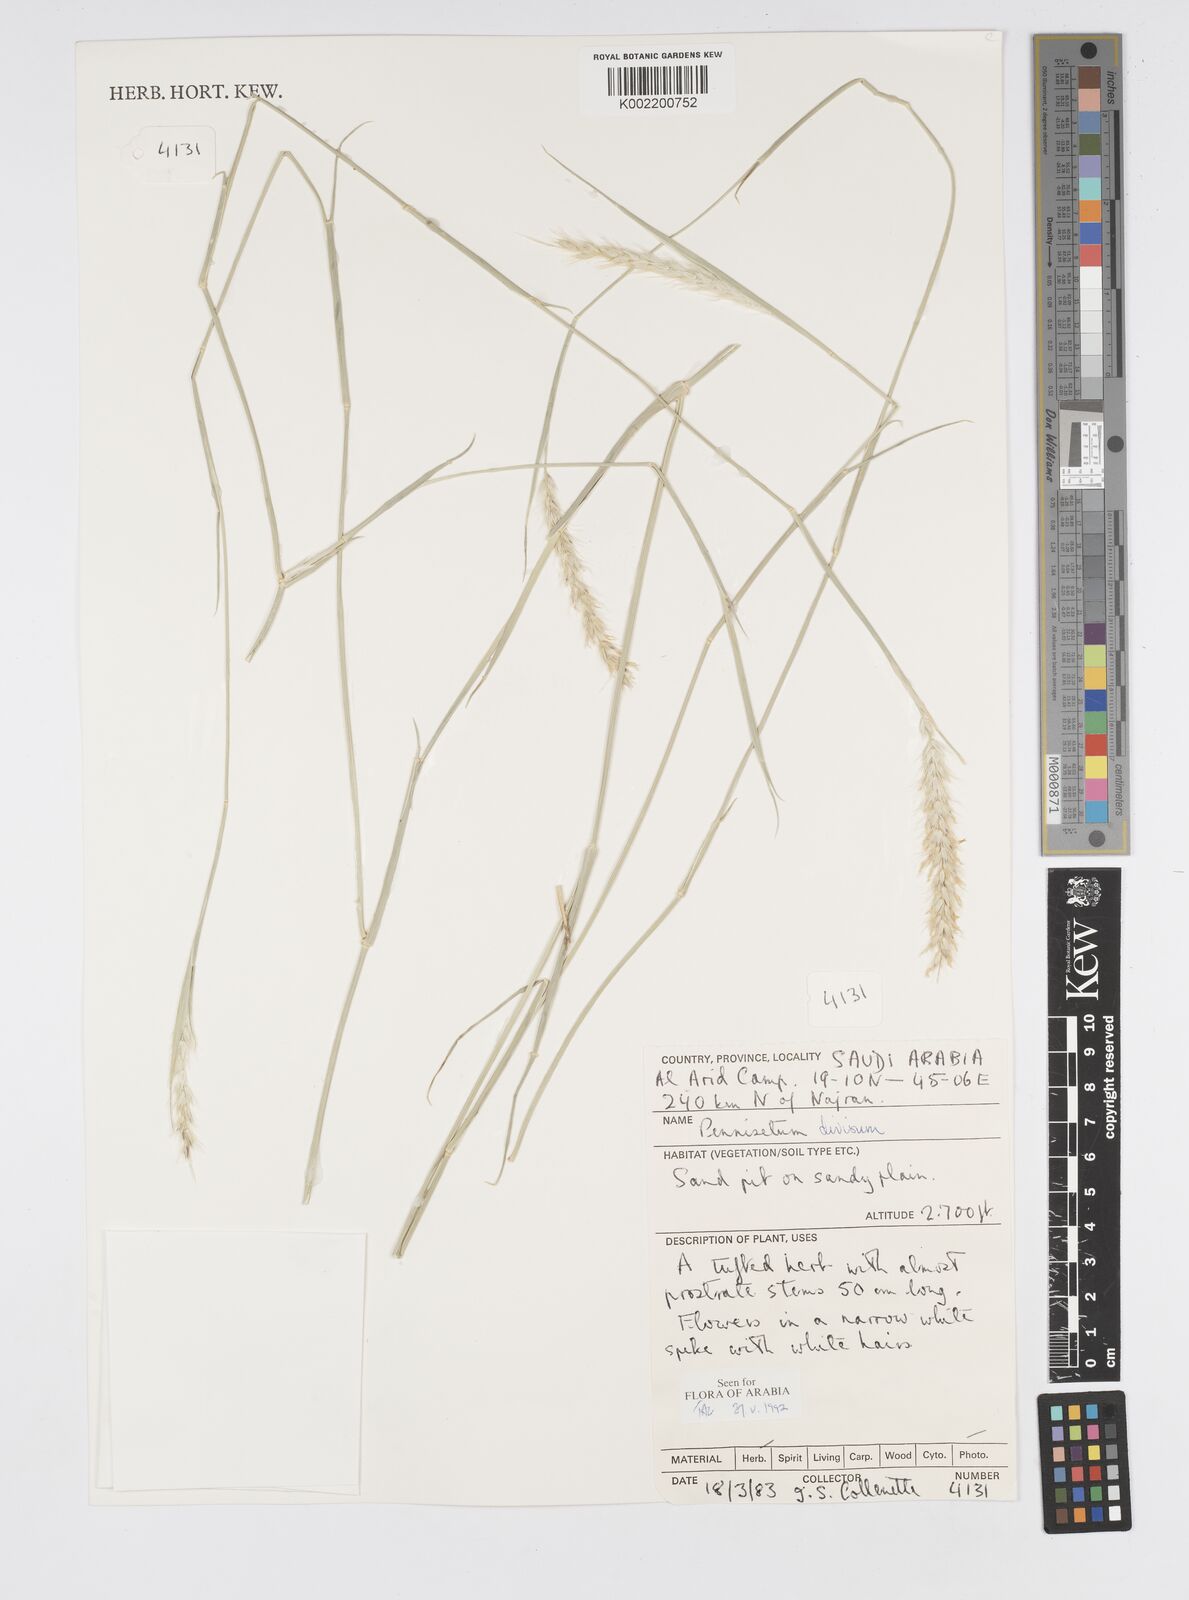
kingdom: Plantae
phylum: Tracheophyta
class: Liliopsida
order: Poales
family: Poaceae
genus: Cenchrus
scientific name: Cenchrus divisus
